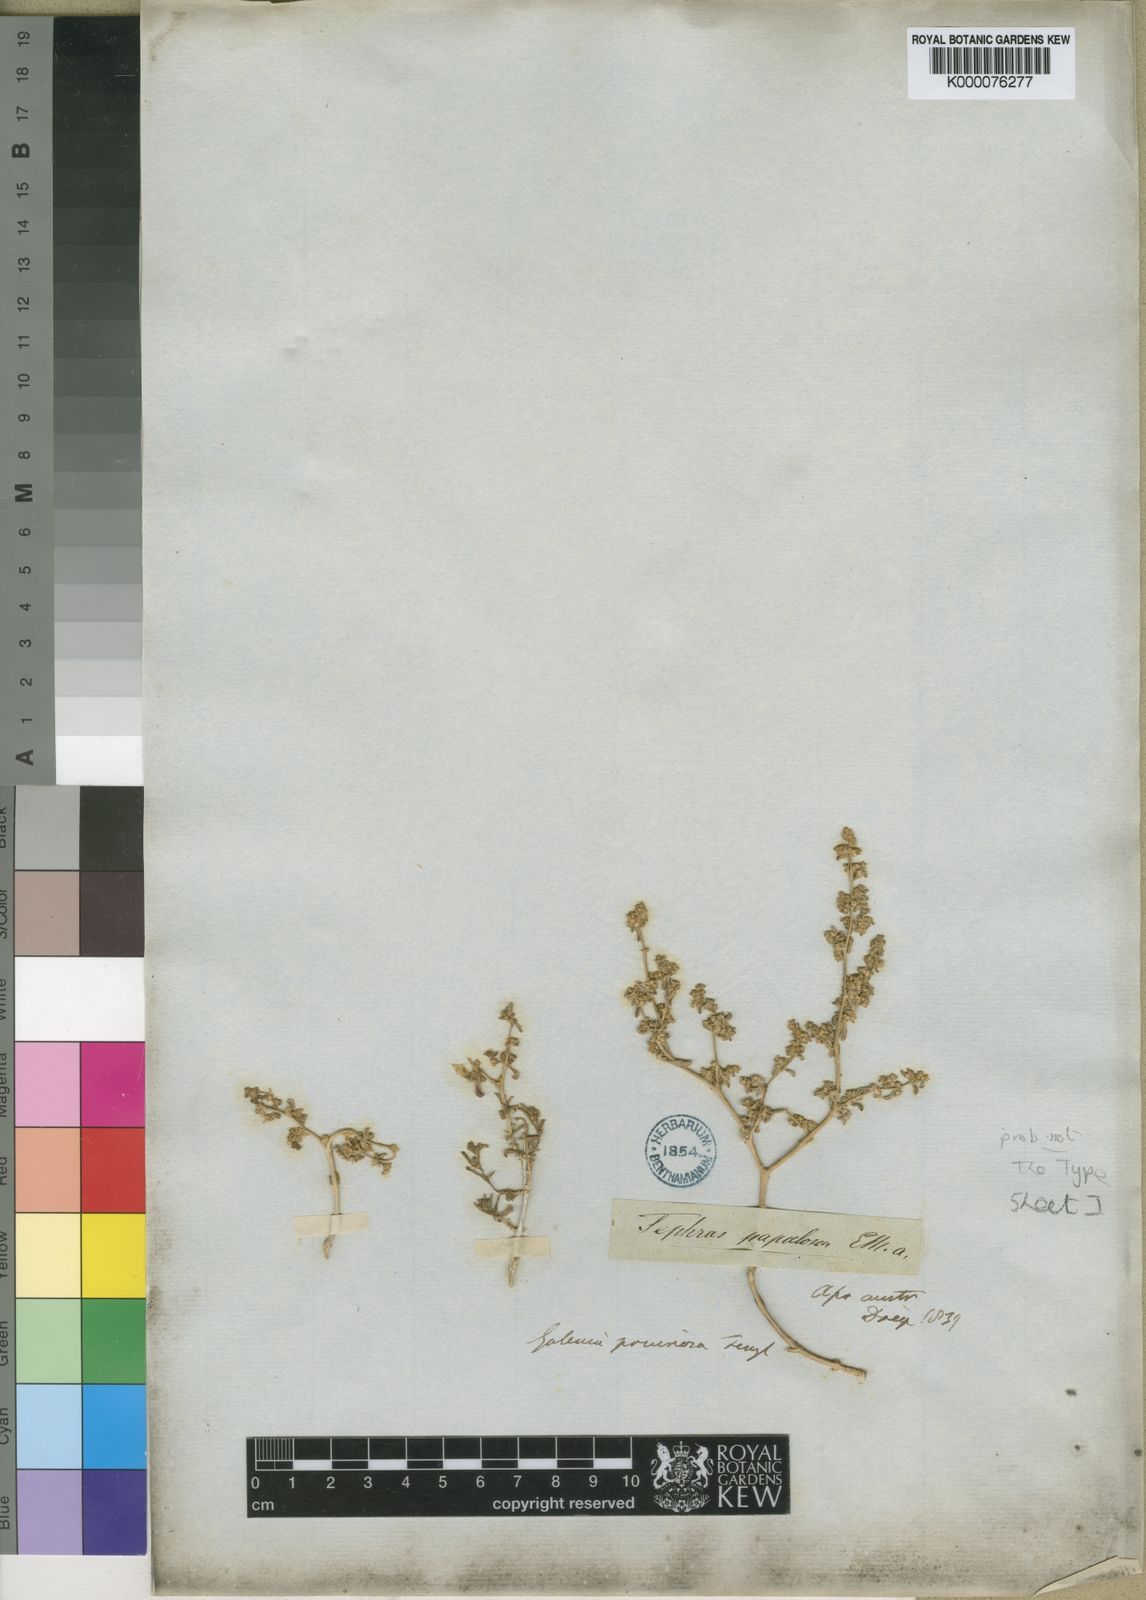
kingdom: Plantae
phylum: Tracheophyta
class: Magnoliopsida
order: Caryophyllales
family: Aizoaceae
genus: Aizoon
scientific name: Aizoon pruinosum
